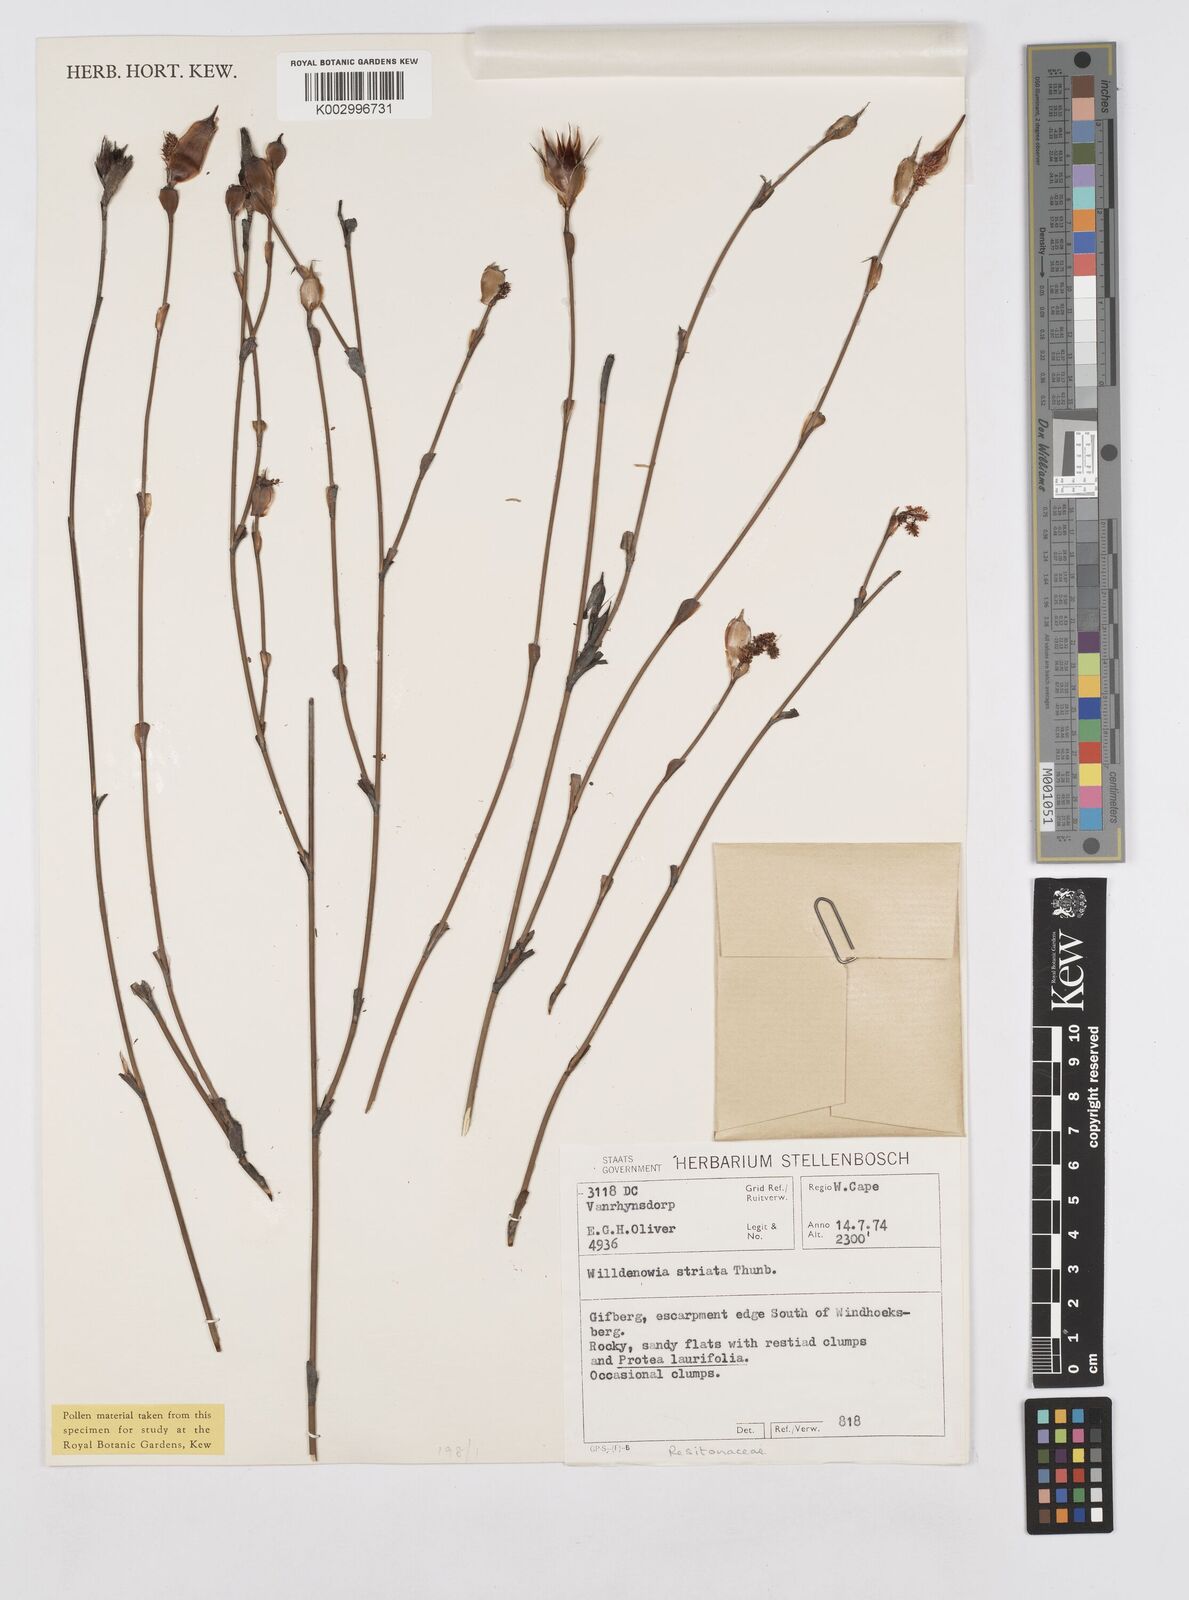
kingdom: Plantae
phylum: Tracheophyta
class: Liliopsida
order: Poales
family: Restionaceae
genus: Willdenowia
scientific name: Willdenowia incurvata
